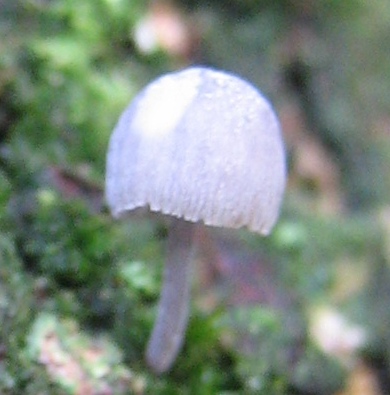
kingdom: Fungi
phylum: Basidiomycota
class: Agaricomycetes
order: Agaricales
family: Mycenaceae
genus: Mycena
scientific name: Mycena pseudocorticola
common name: gråblå bark-huesvamp
